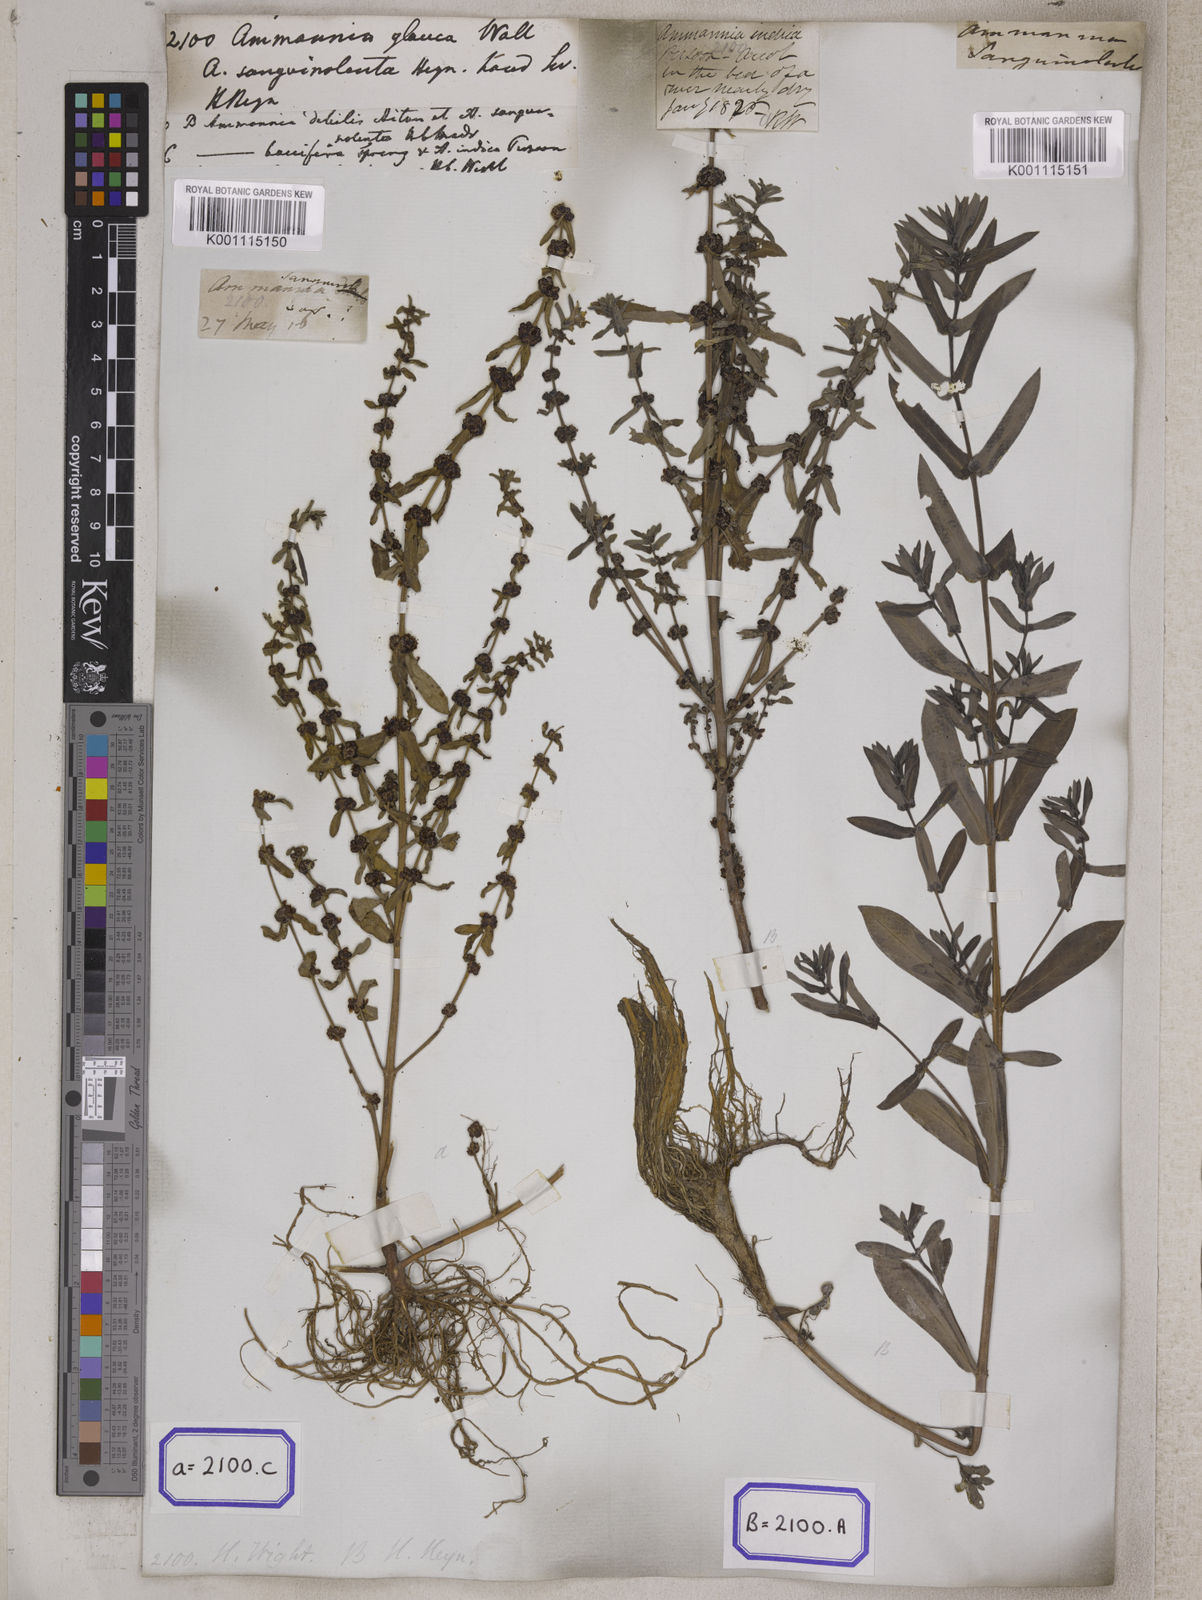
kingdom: Plantae
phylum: Tracheophyta
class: Magnoliopsida
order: Myrtales
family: Lythraceae
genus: Ammannia
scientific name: Ammannia
